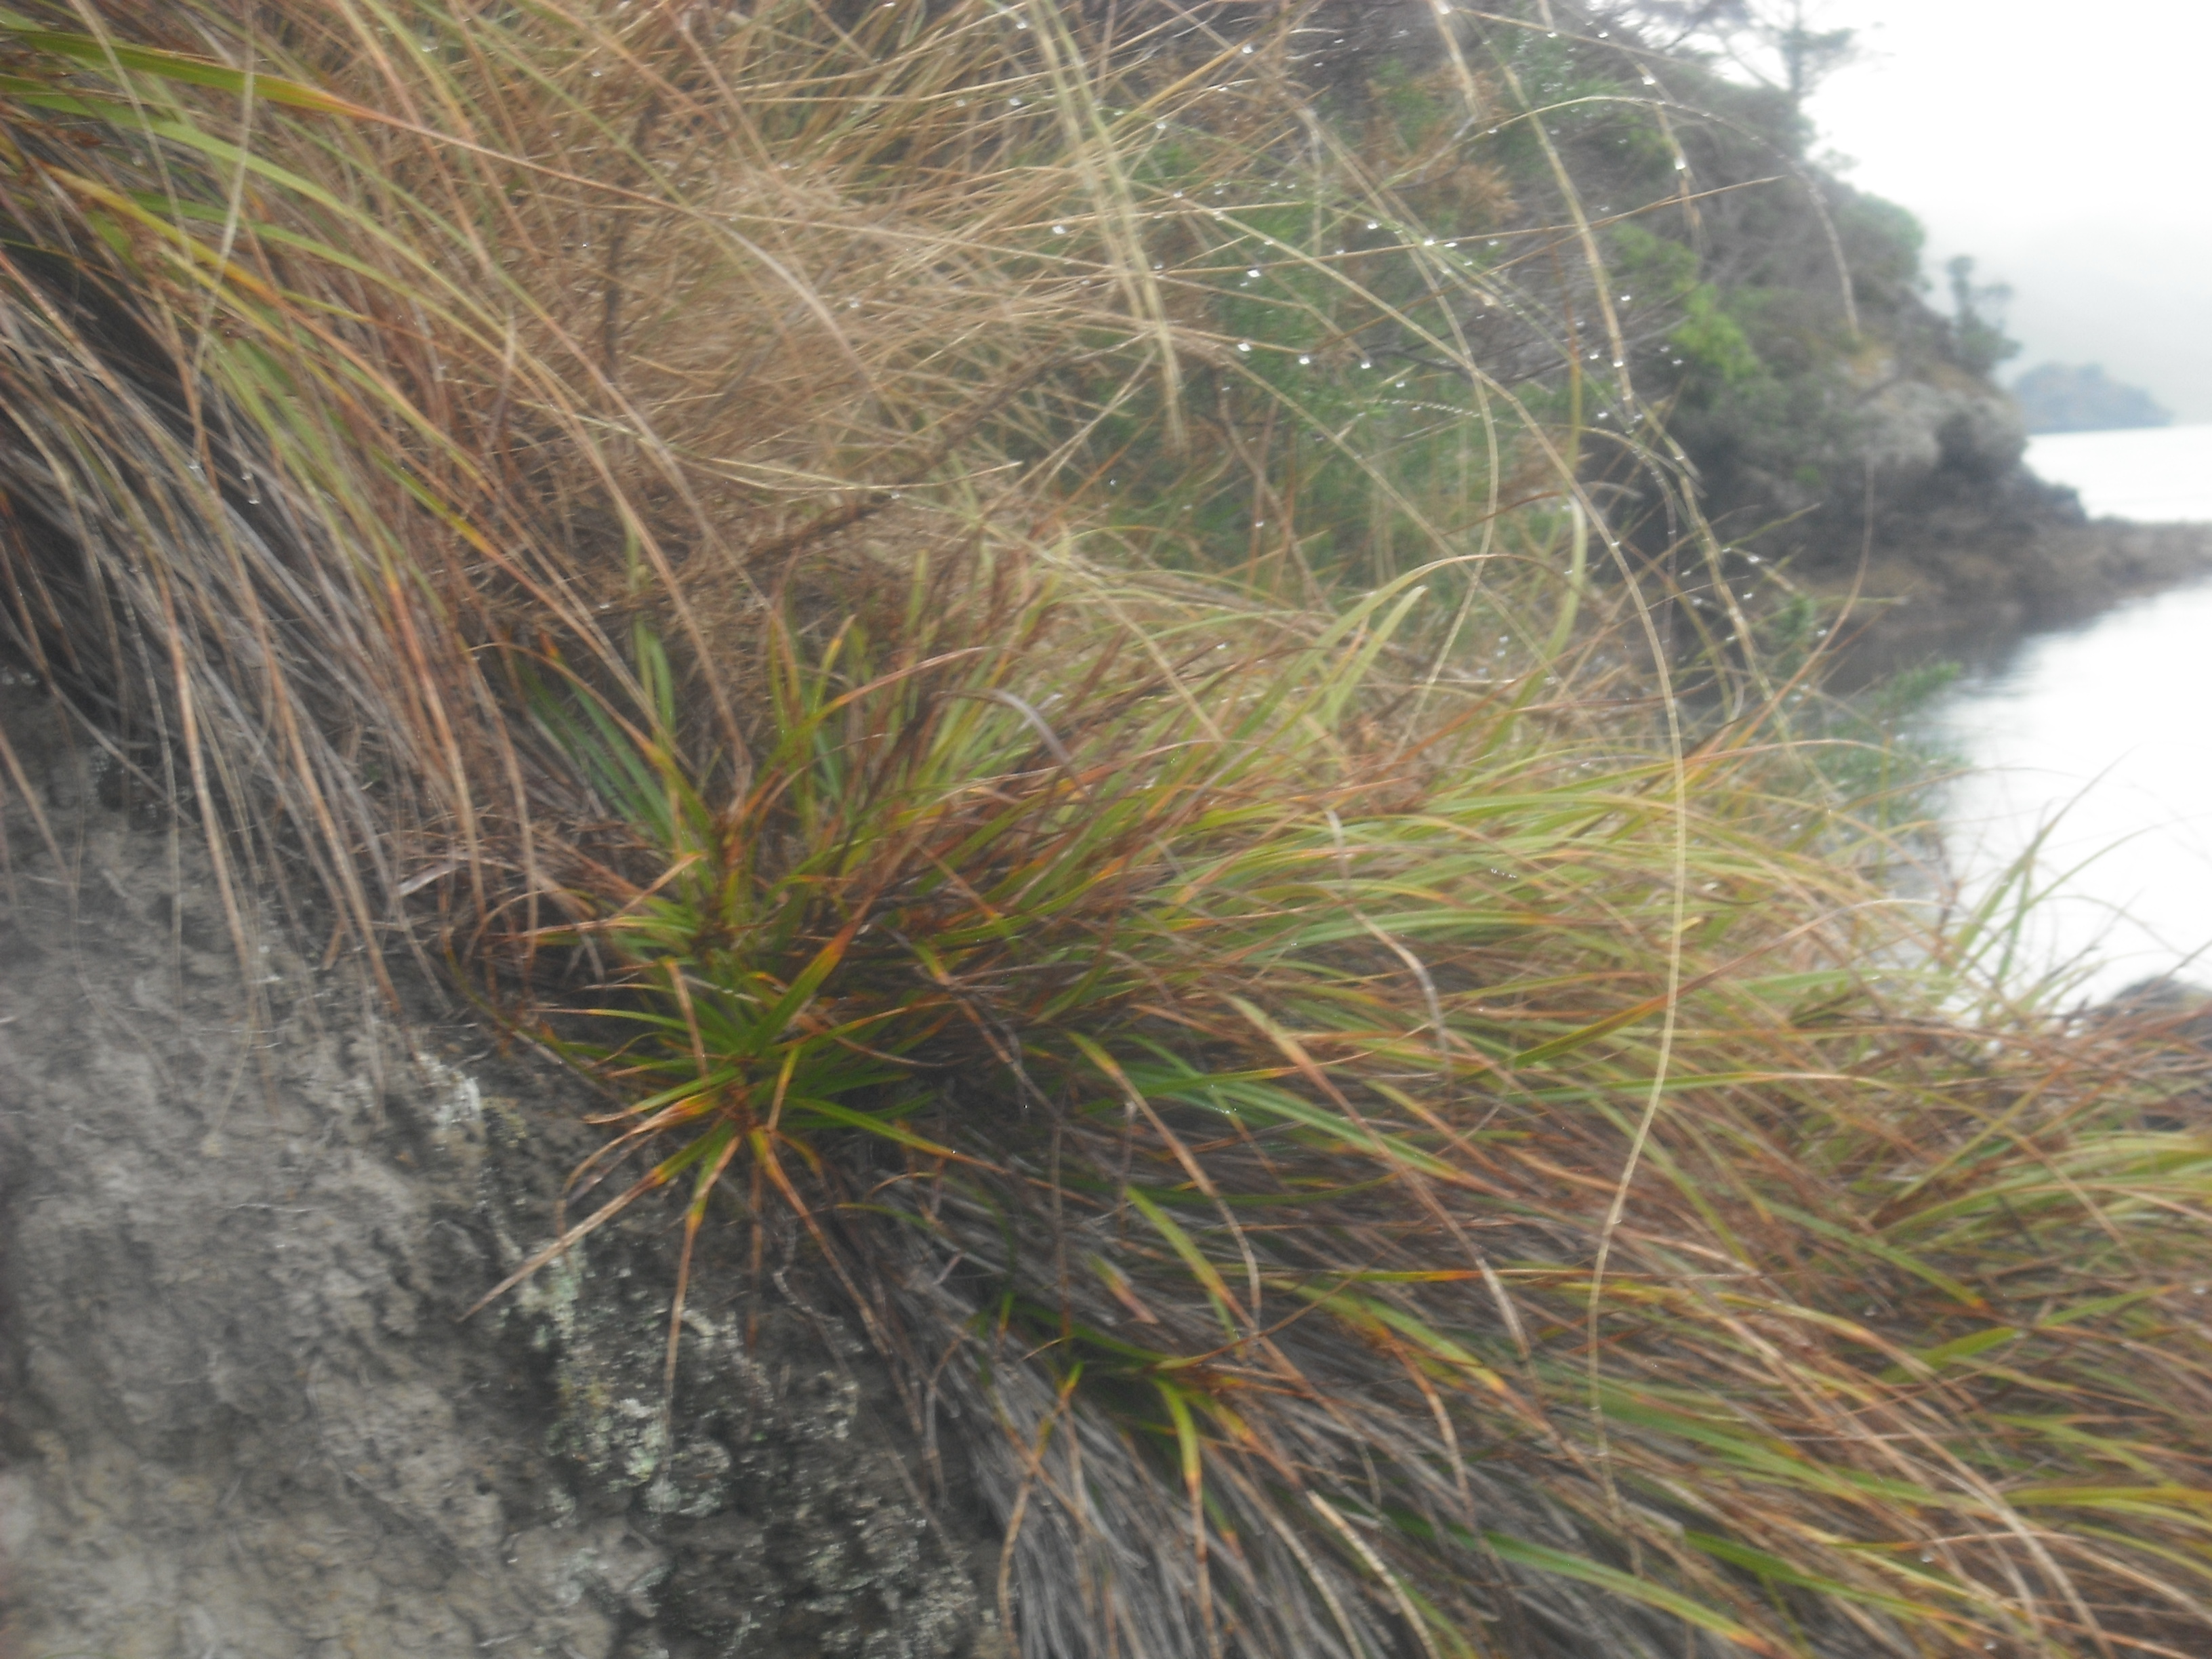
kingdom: Plantae
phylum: Tracheophyta
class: Liliopsida
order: Poales
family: Cyperaceae
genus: Morelotia
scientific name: Morelotia affinis
